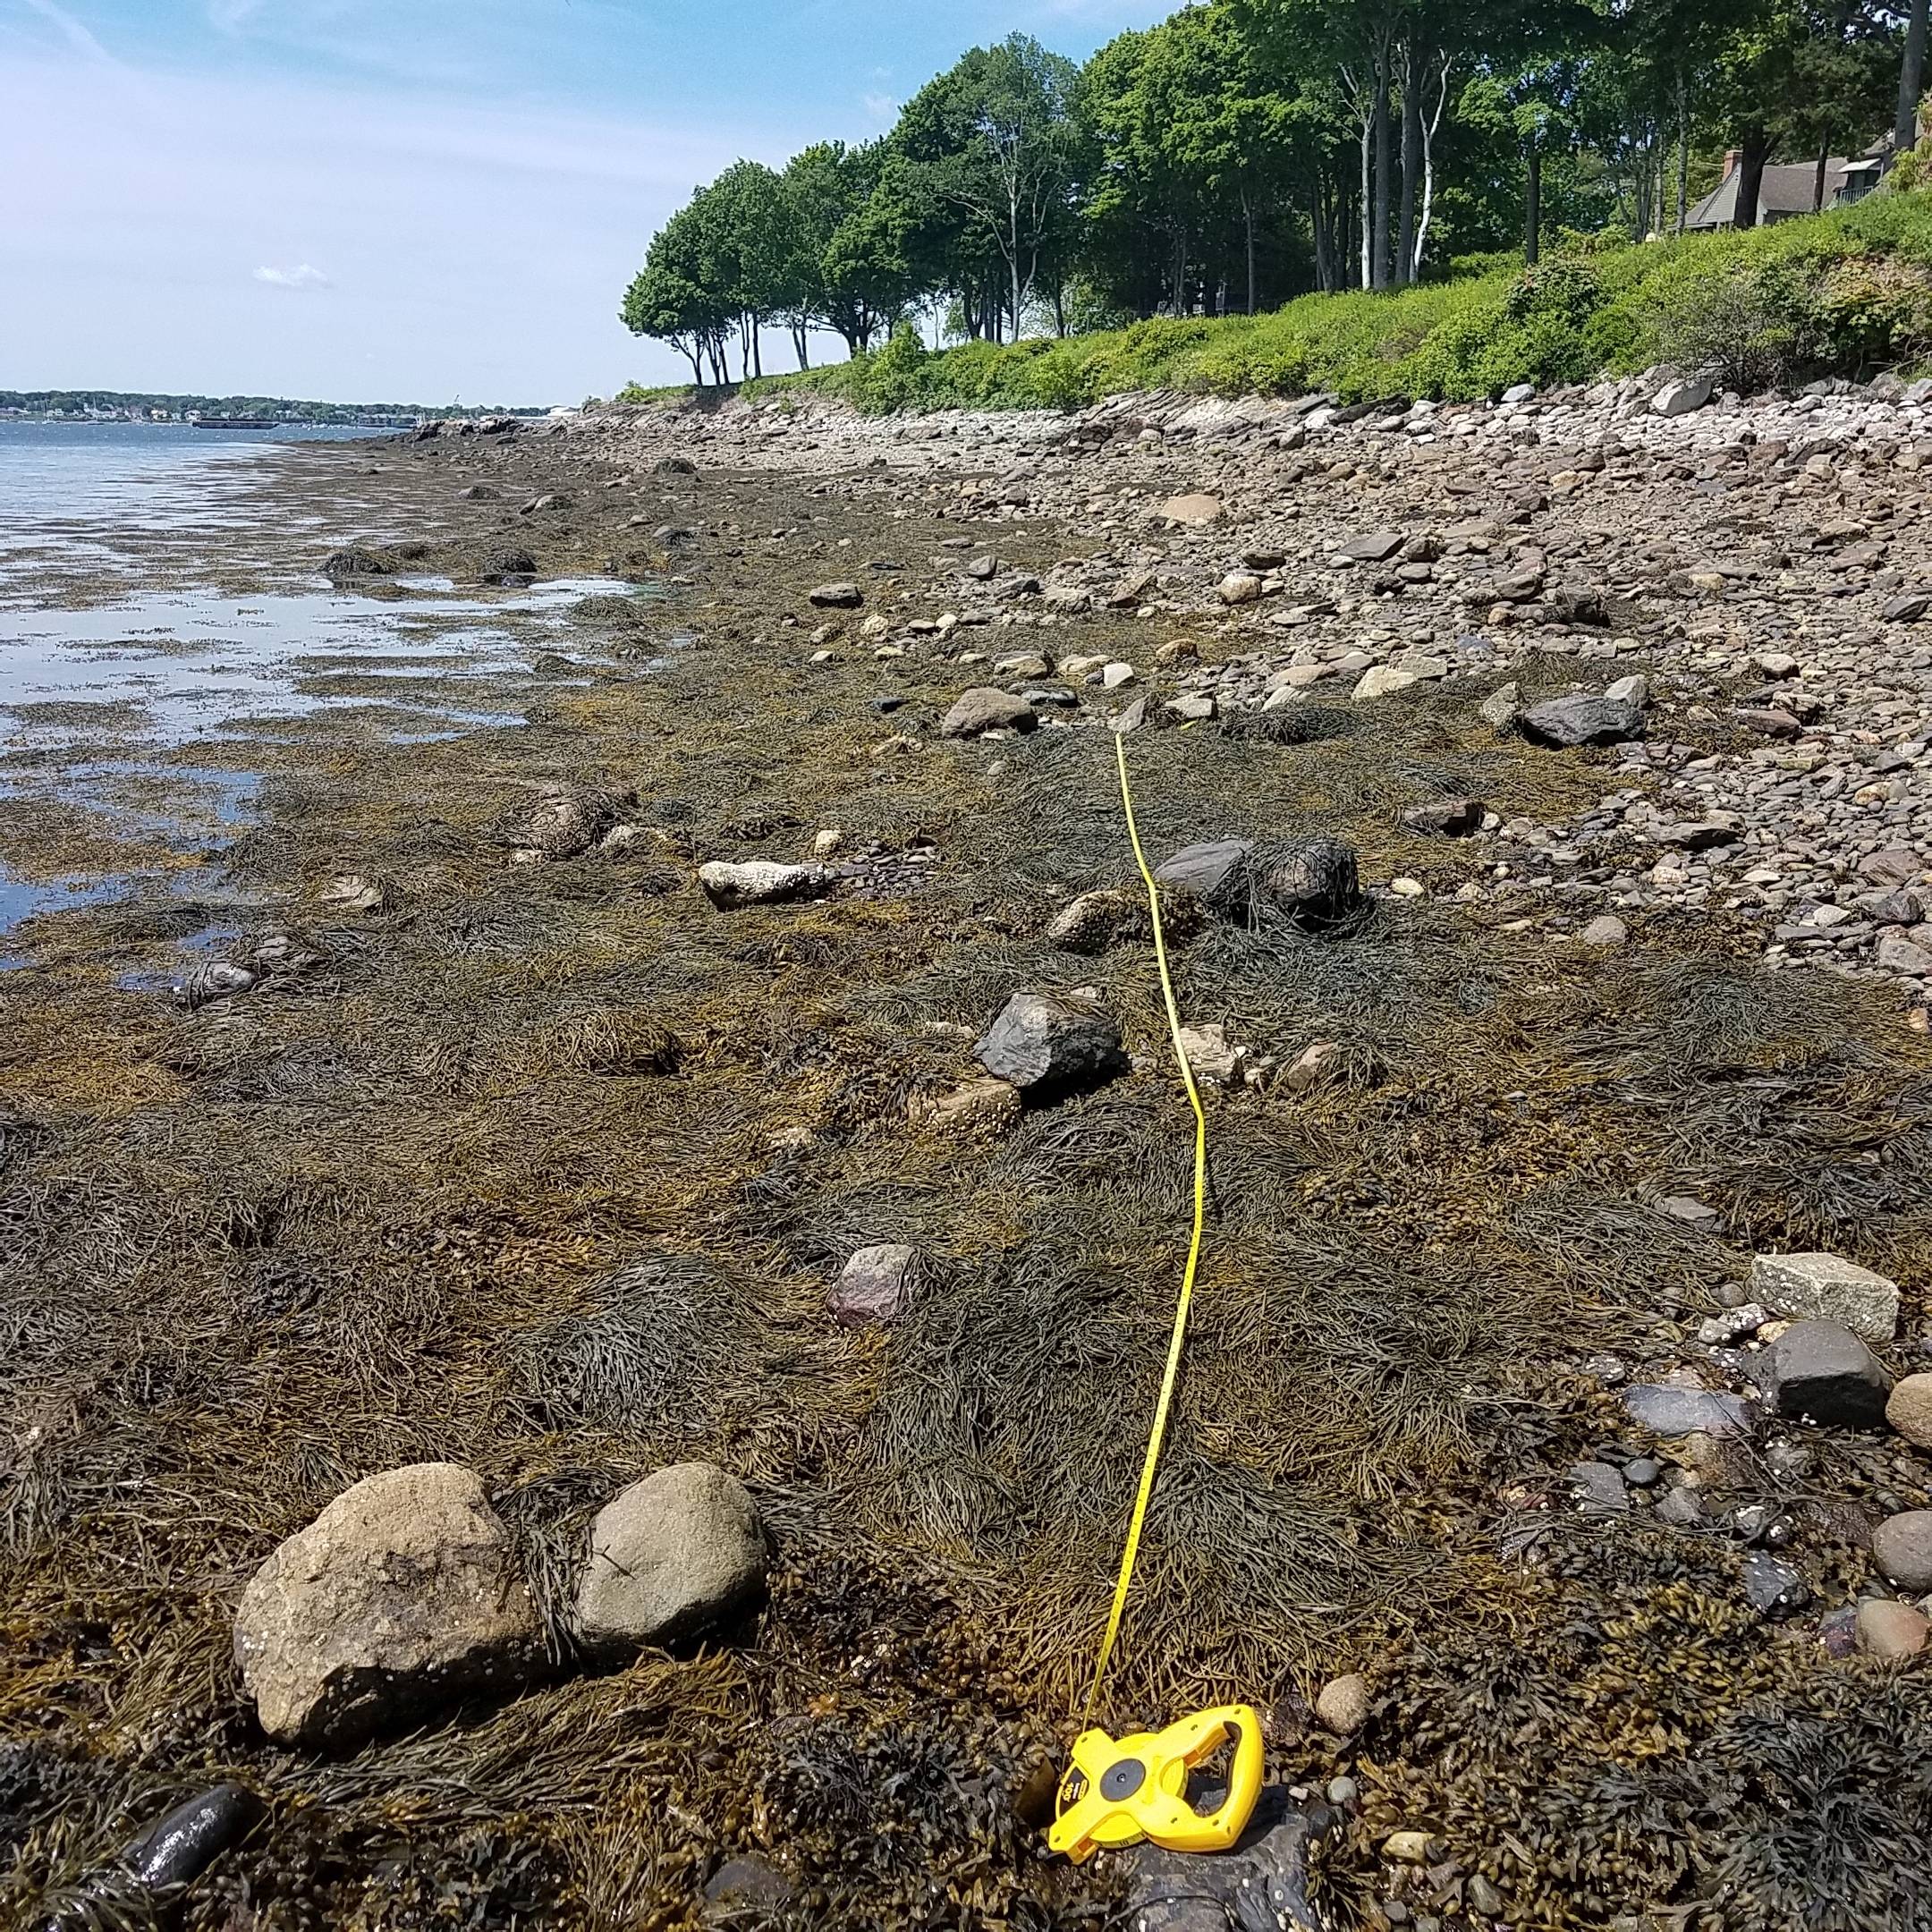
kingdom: Chromista
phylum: Ochrophyta
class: Phaeophyceae
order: Fucales
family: Fucaceae
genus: Ascophyllum
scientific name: Ascophyllum nodosum
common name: Rockweed
